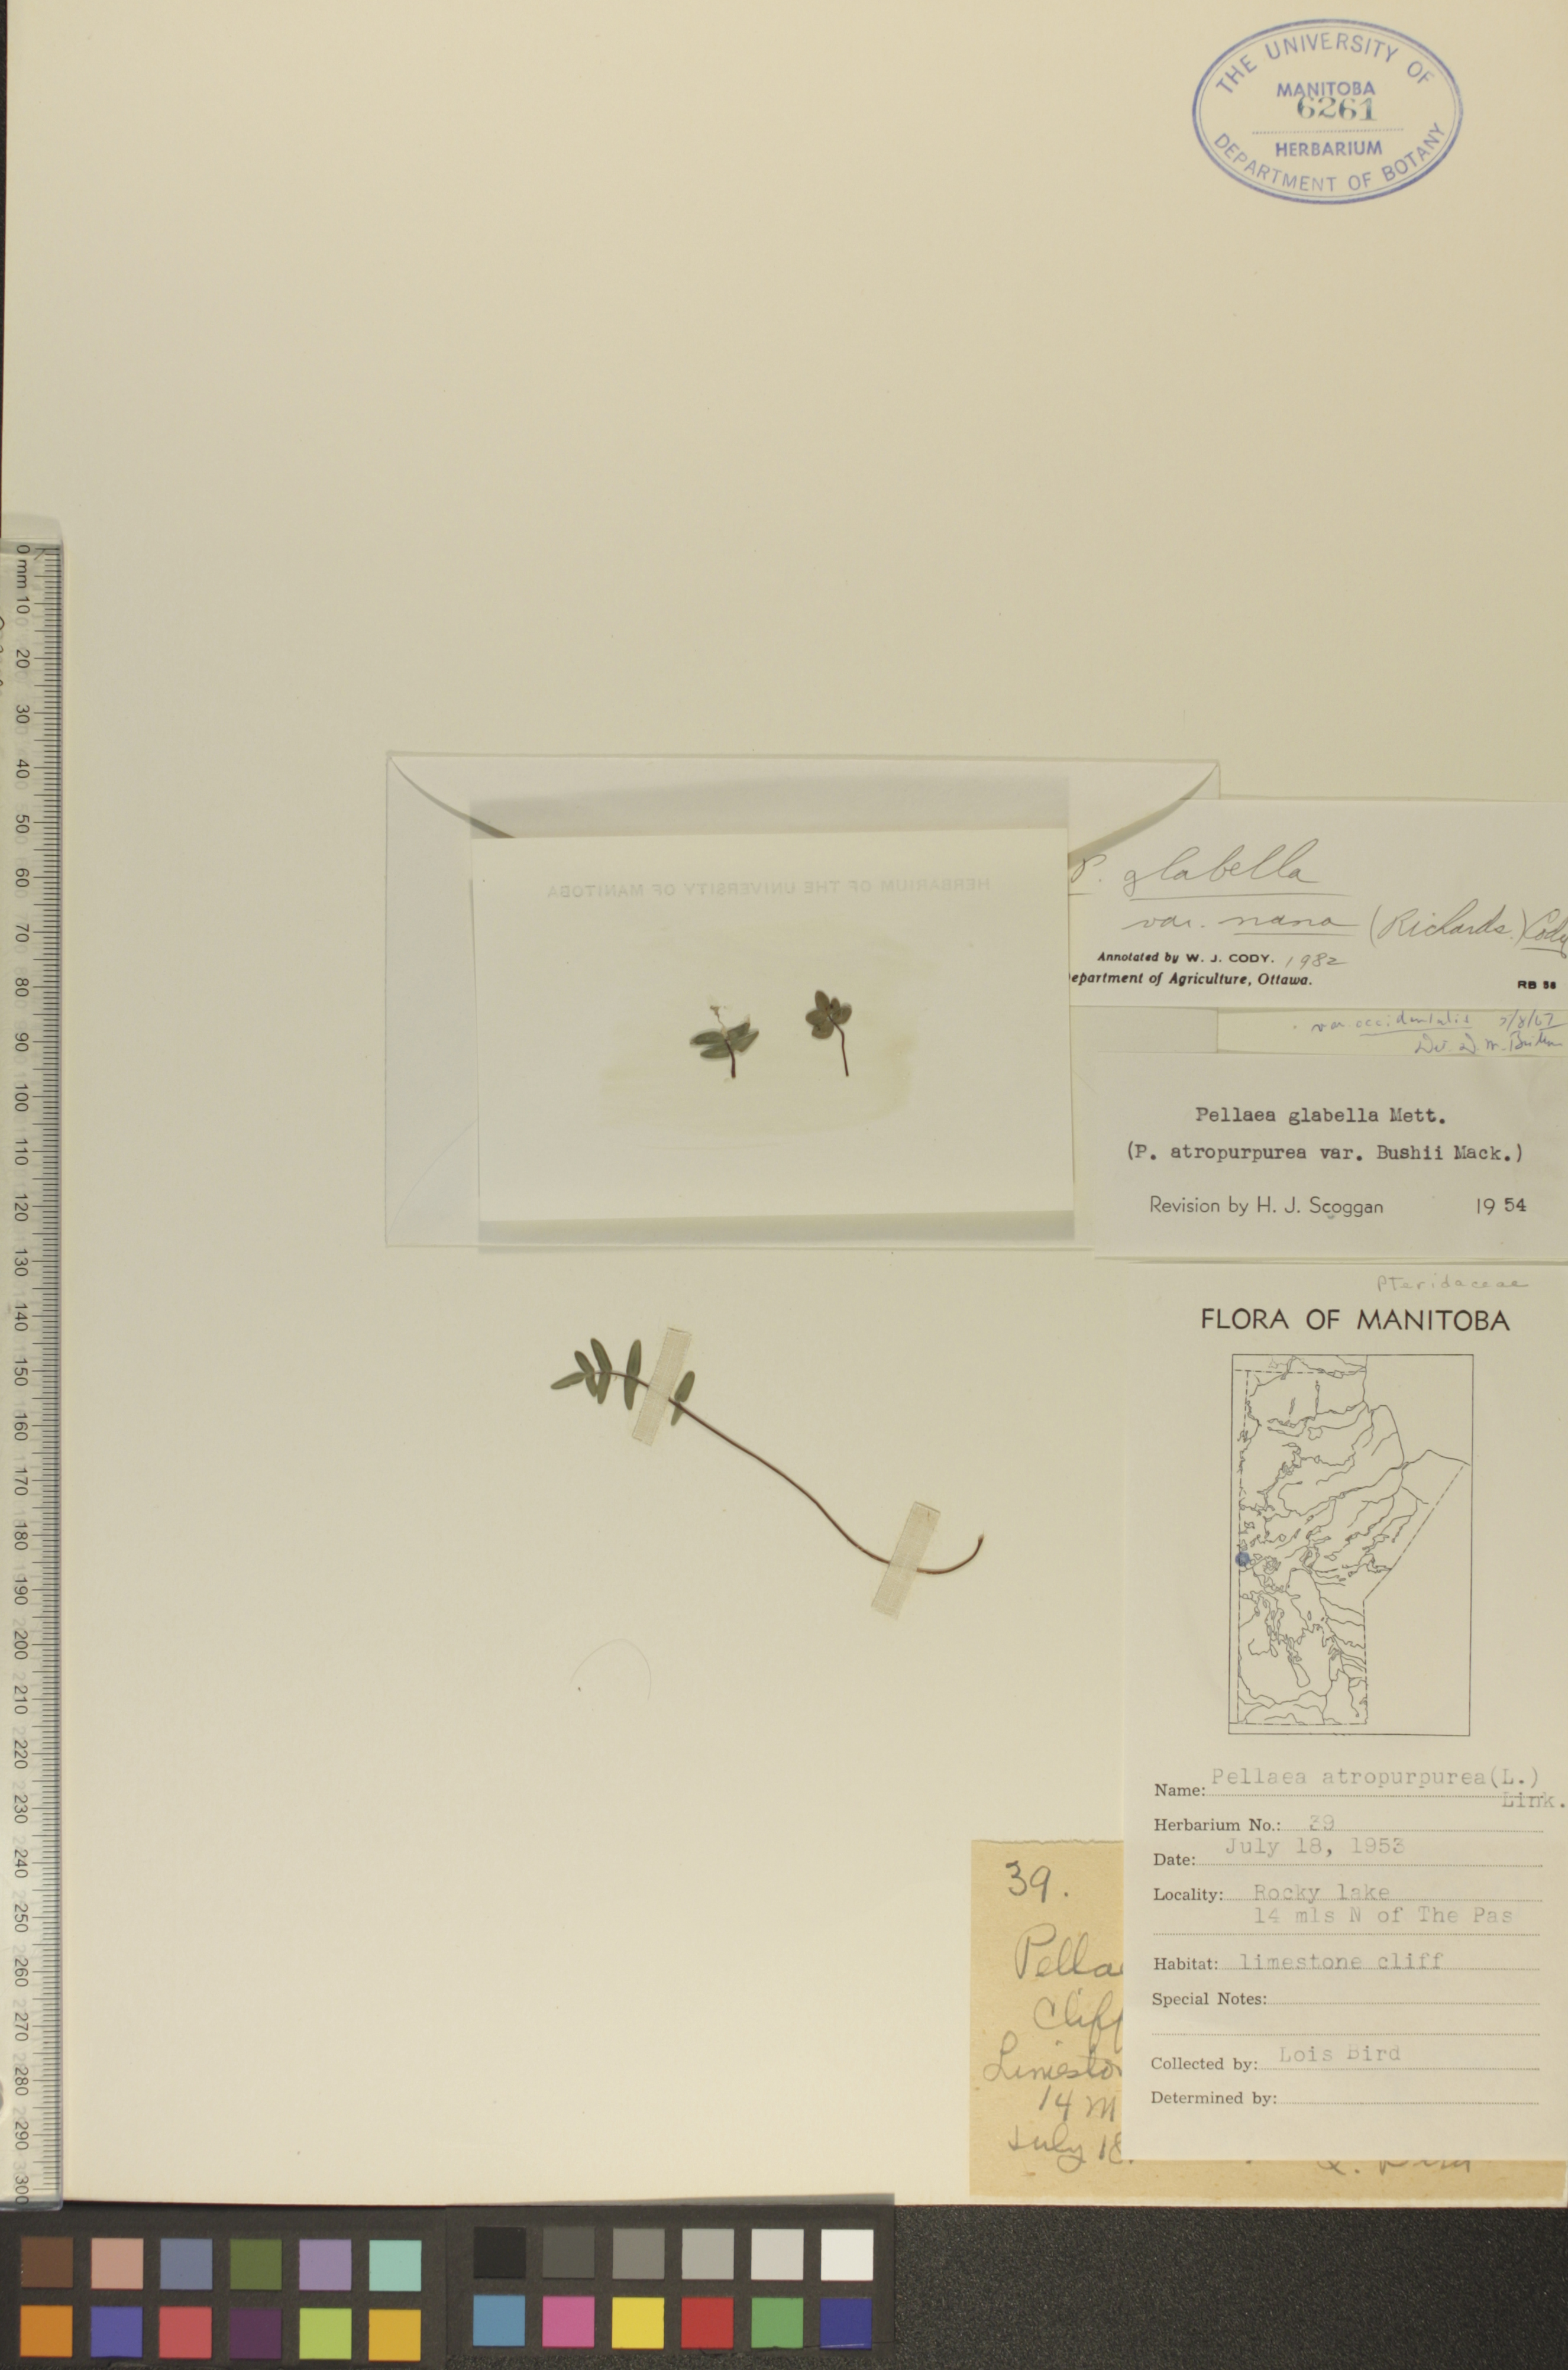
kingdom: Plantae
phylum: Tracheophyta
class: Polypodiopsida
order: Polypodiales
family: Pteridaceae
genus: Pellaea
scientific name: Pellaea glabella
